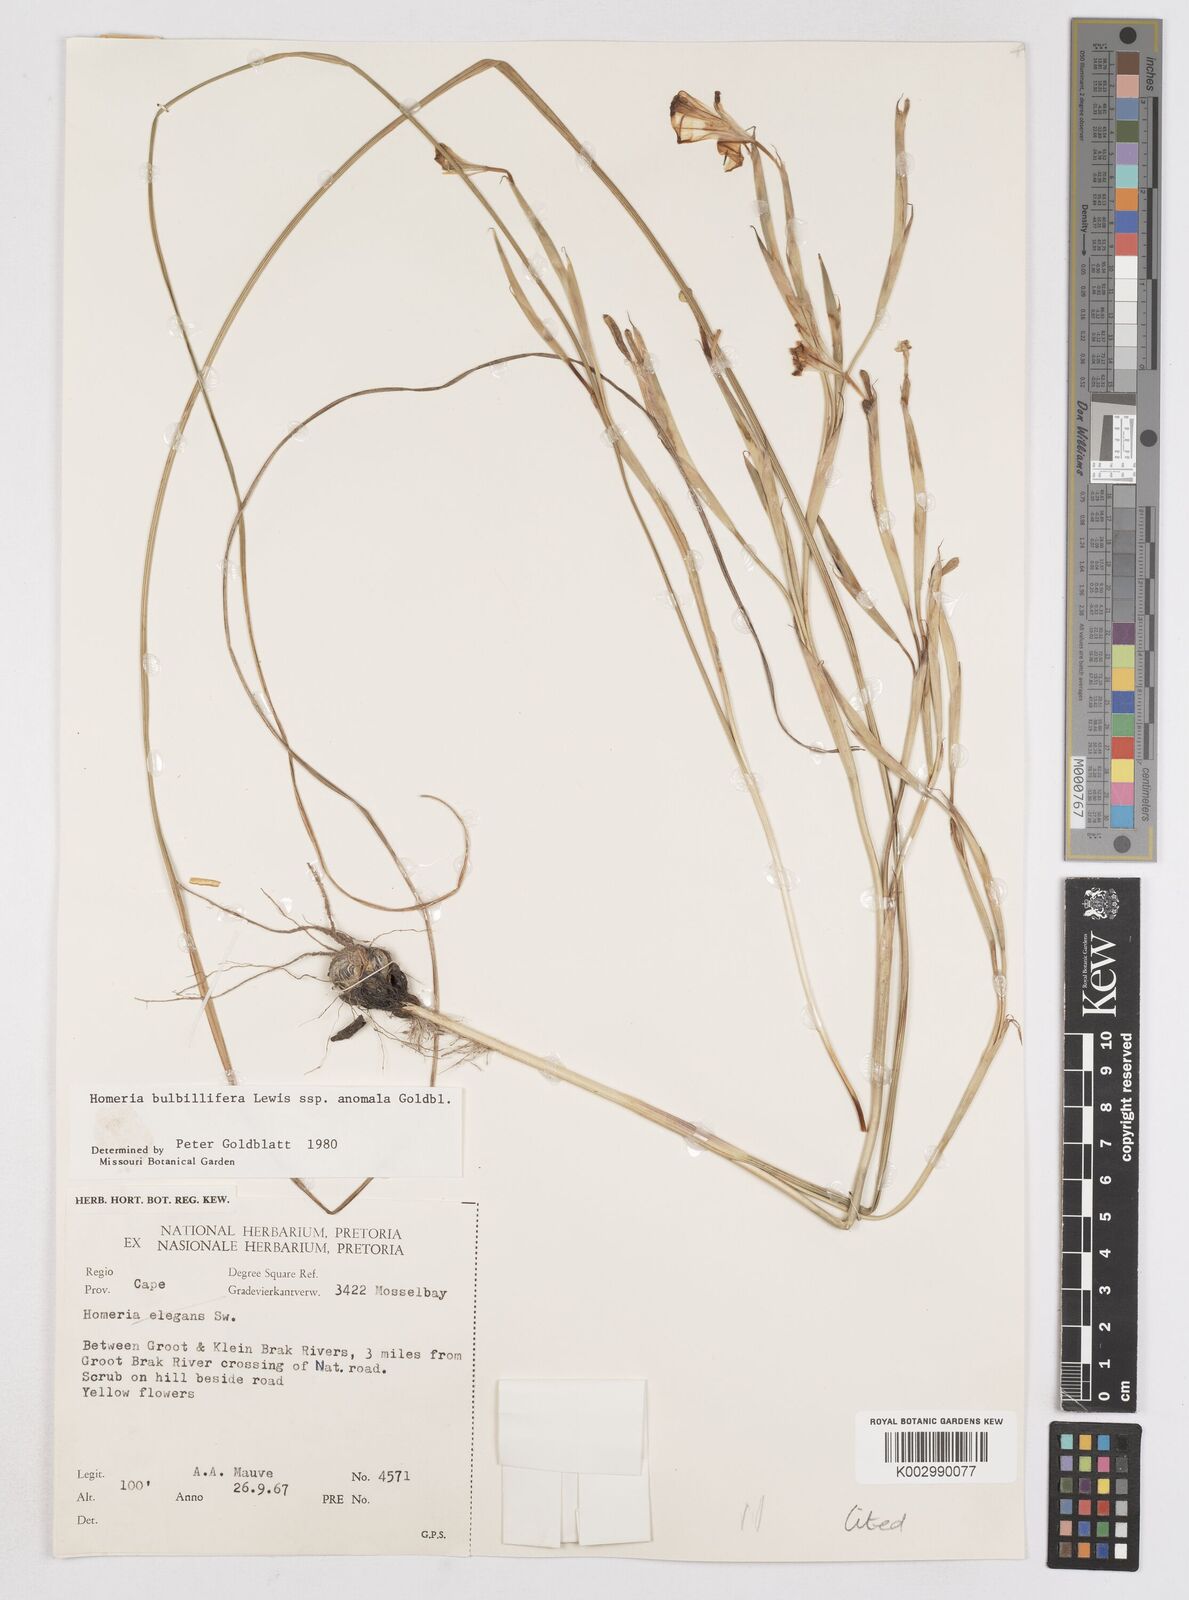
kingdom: Plantae
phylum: Tracheophyta
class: Liliopsida
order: Asparagales
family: Iridaceae
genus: Moraea
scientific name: Moraea bulbillifera
